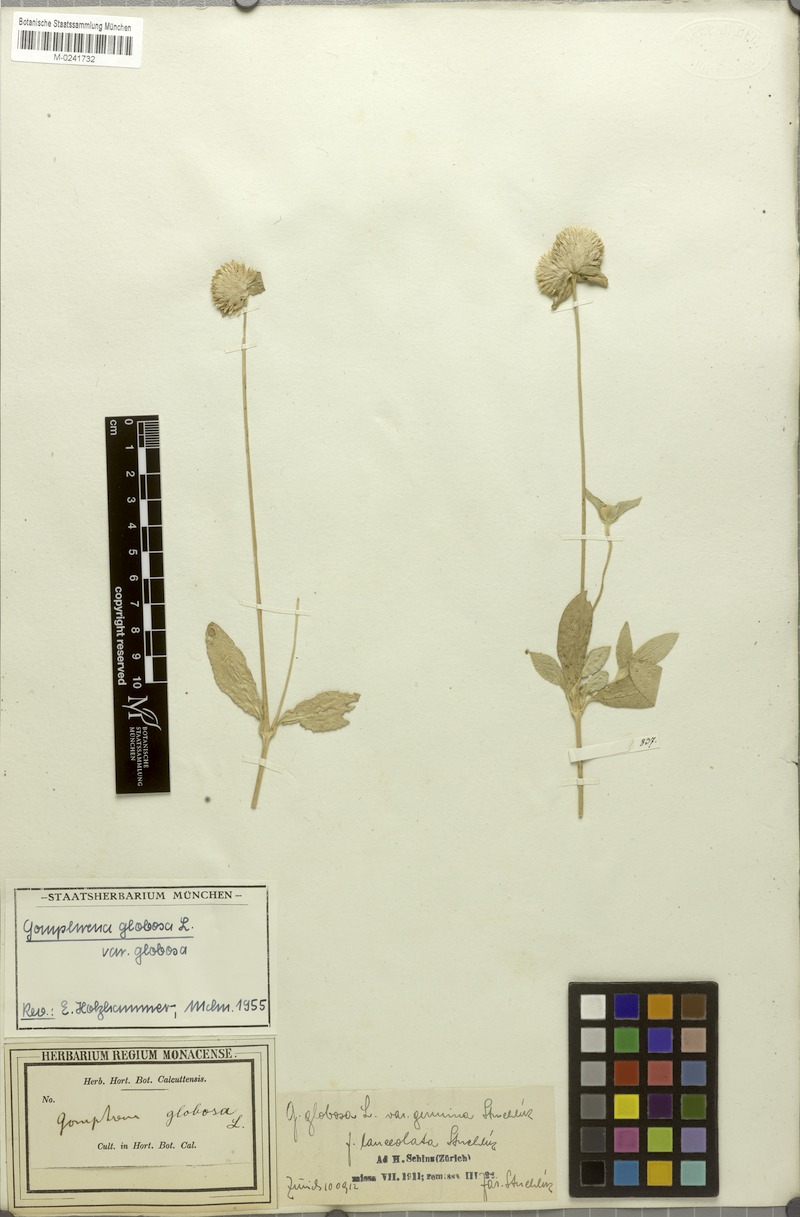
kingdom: Plantae
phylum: Tracheophyta
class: Magnoliopsida
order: Caryophyllales
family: Amaranthaceae
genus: Gomphrena
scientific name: Gomphrena globosa
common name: Common globe amaranth
